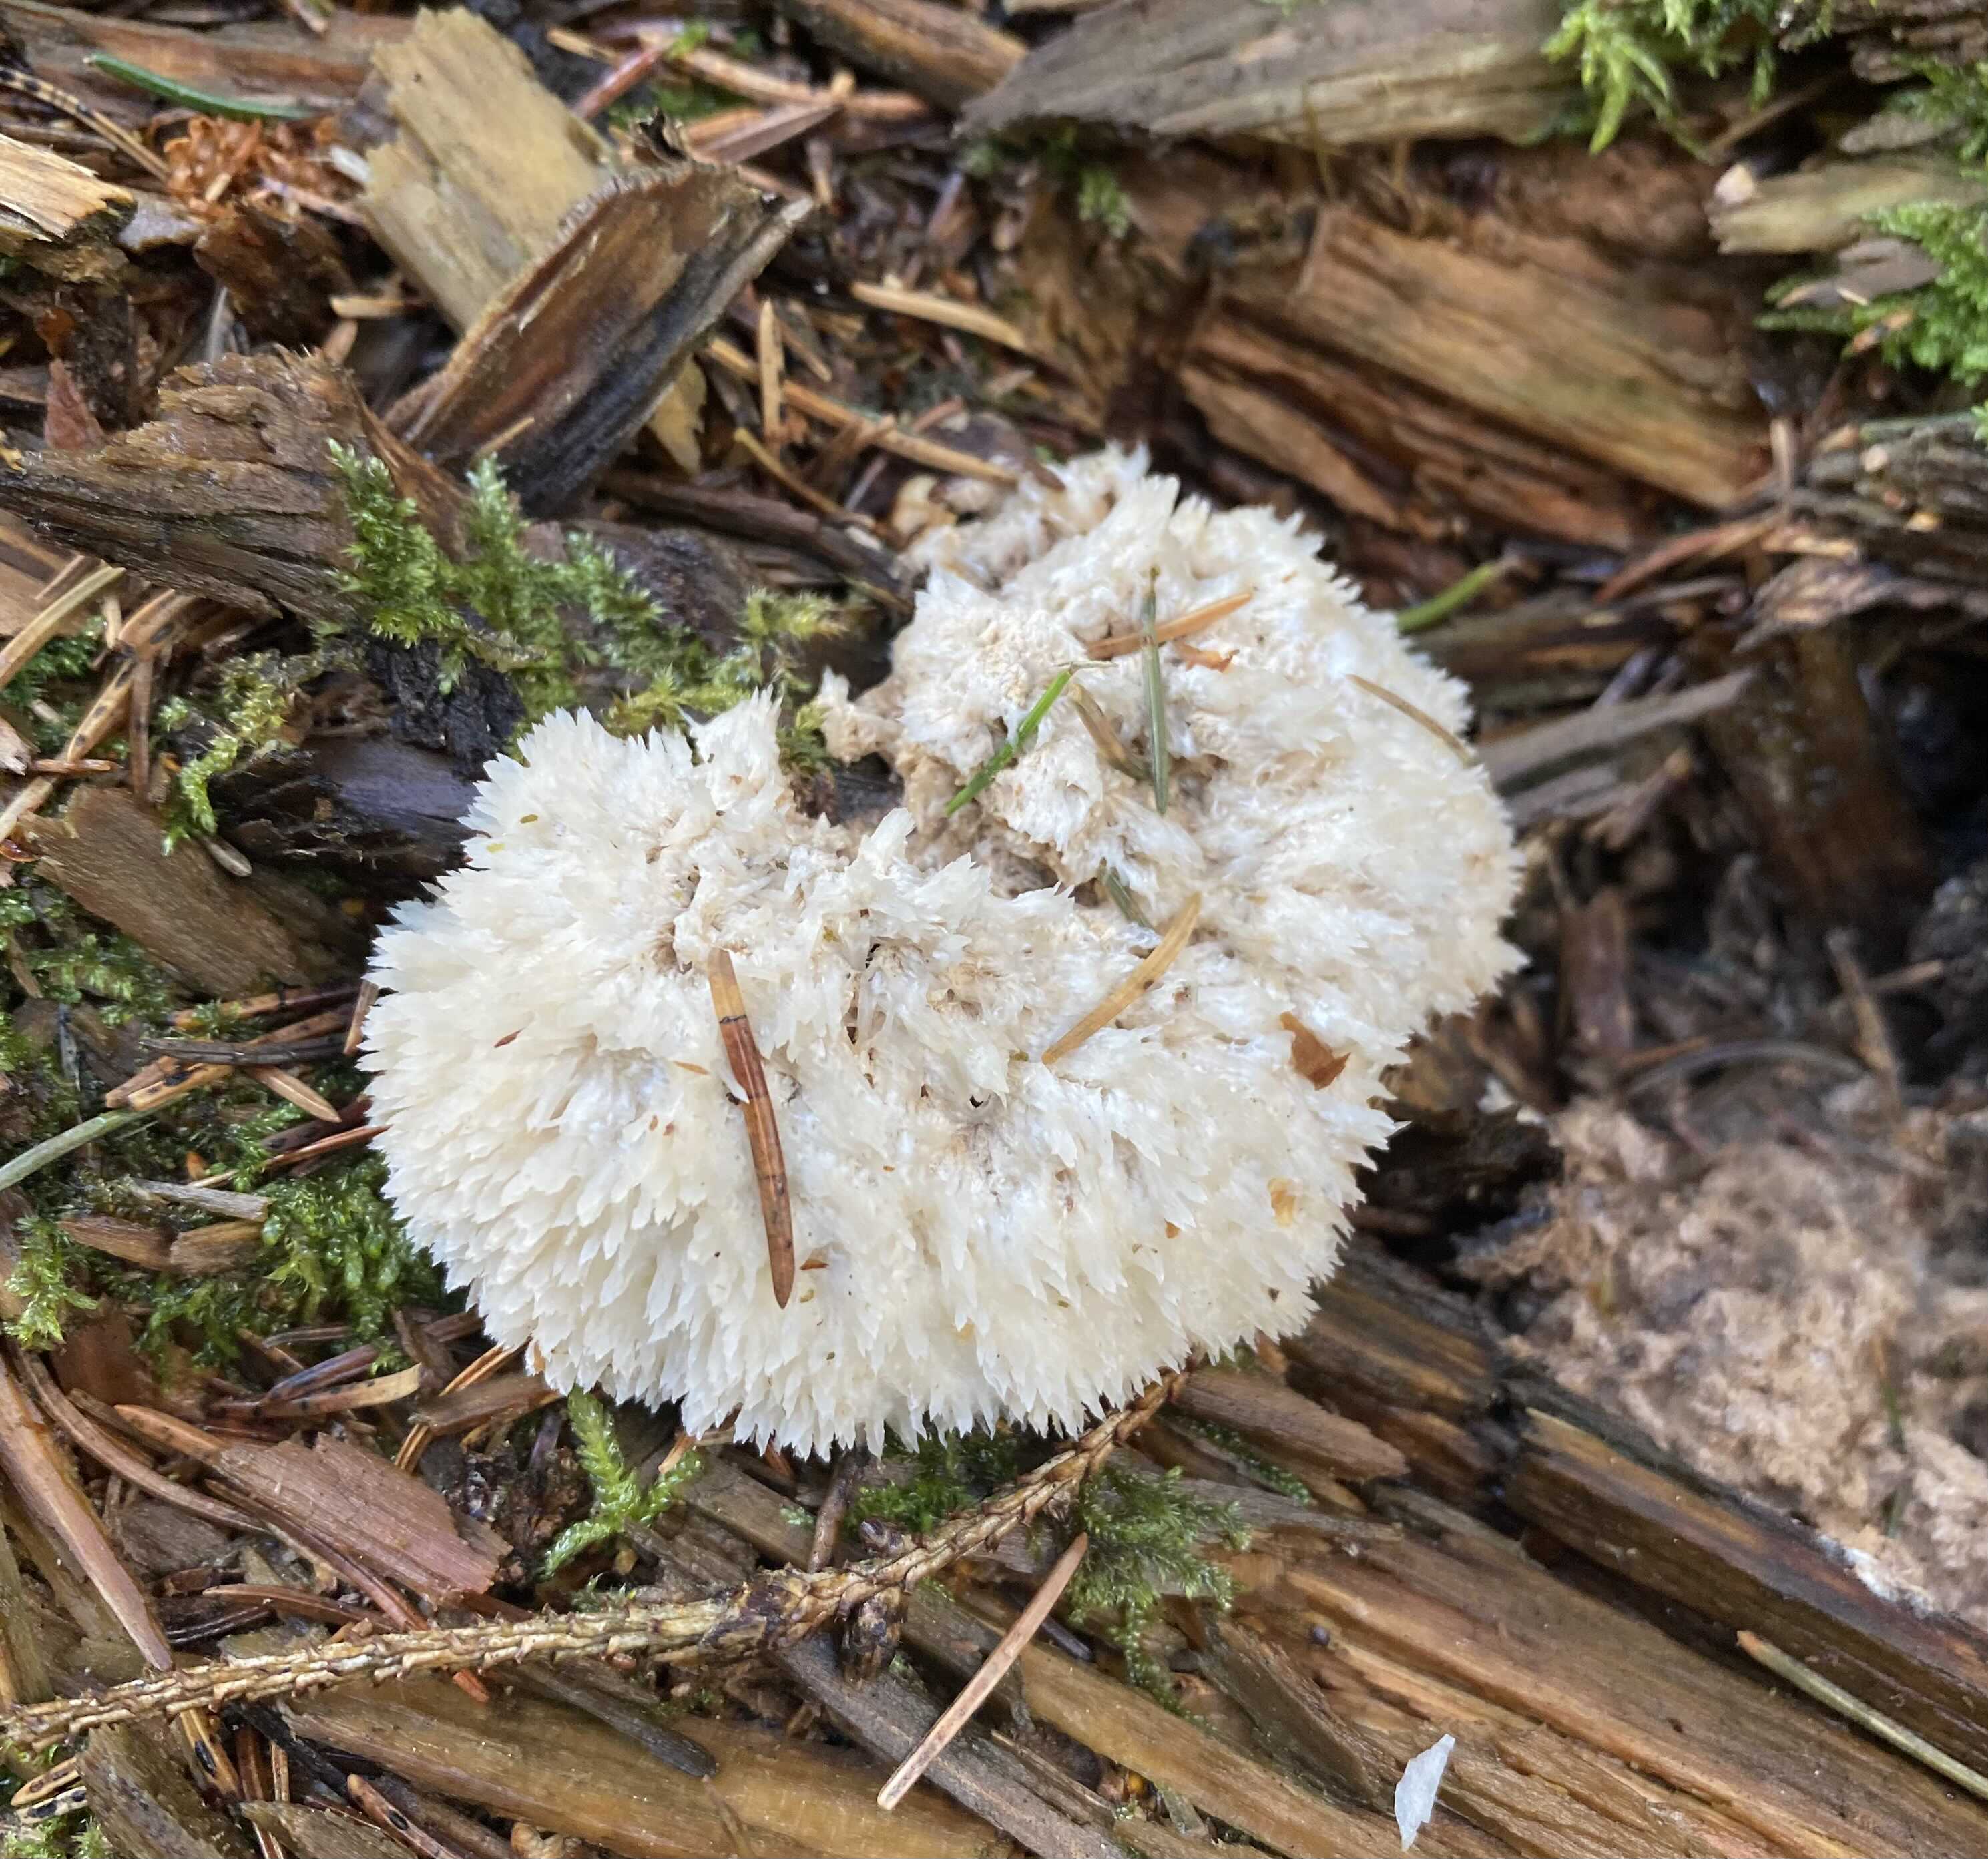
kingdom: Fungi
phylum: Basidiomycota
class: Agaricomycetes
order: Polyporales
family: Dacryobolaceae
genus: Postia
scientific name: Postia ptychogaster
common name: støvende kødporesvamp
